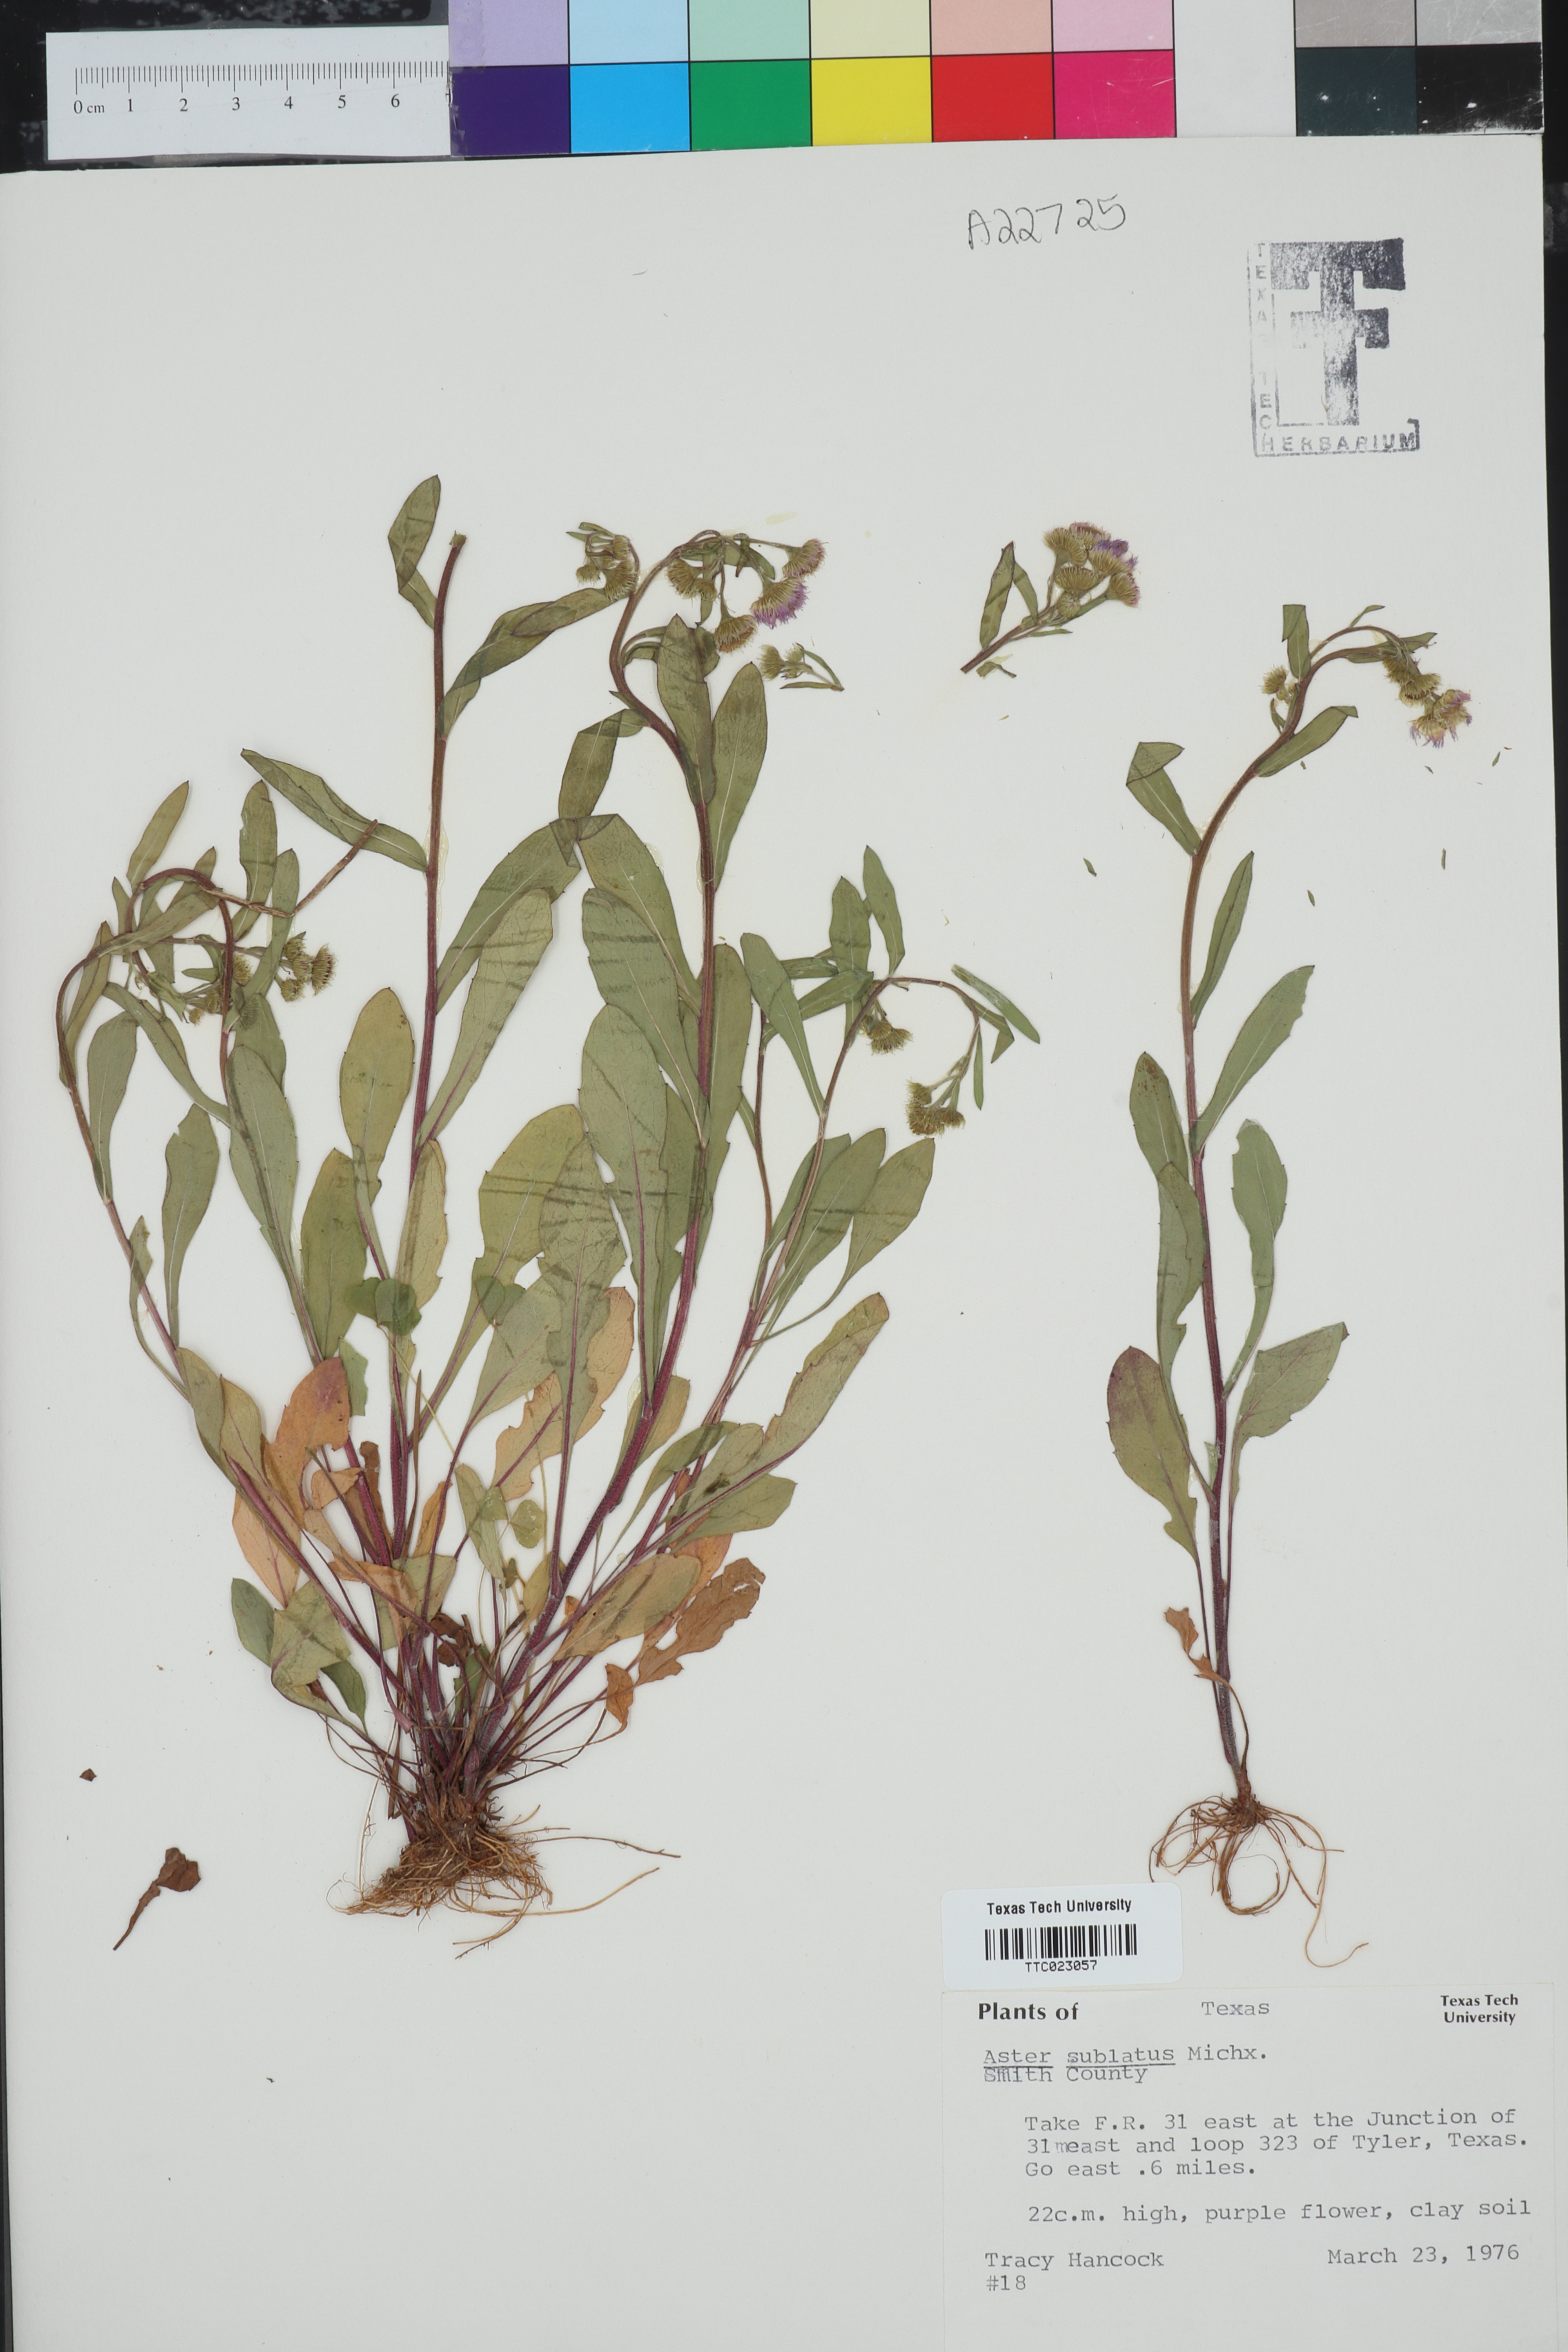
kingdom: Plantae
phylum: Tracheophyta
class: Magnoliopsida
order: Asterales
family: Asteraceae
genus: Symphyotrichum
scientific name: Symphyotrichum subulatum
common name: Annual saltmarsh aster
